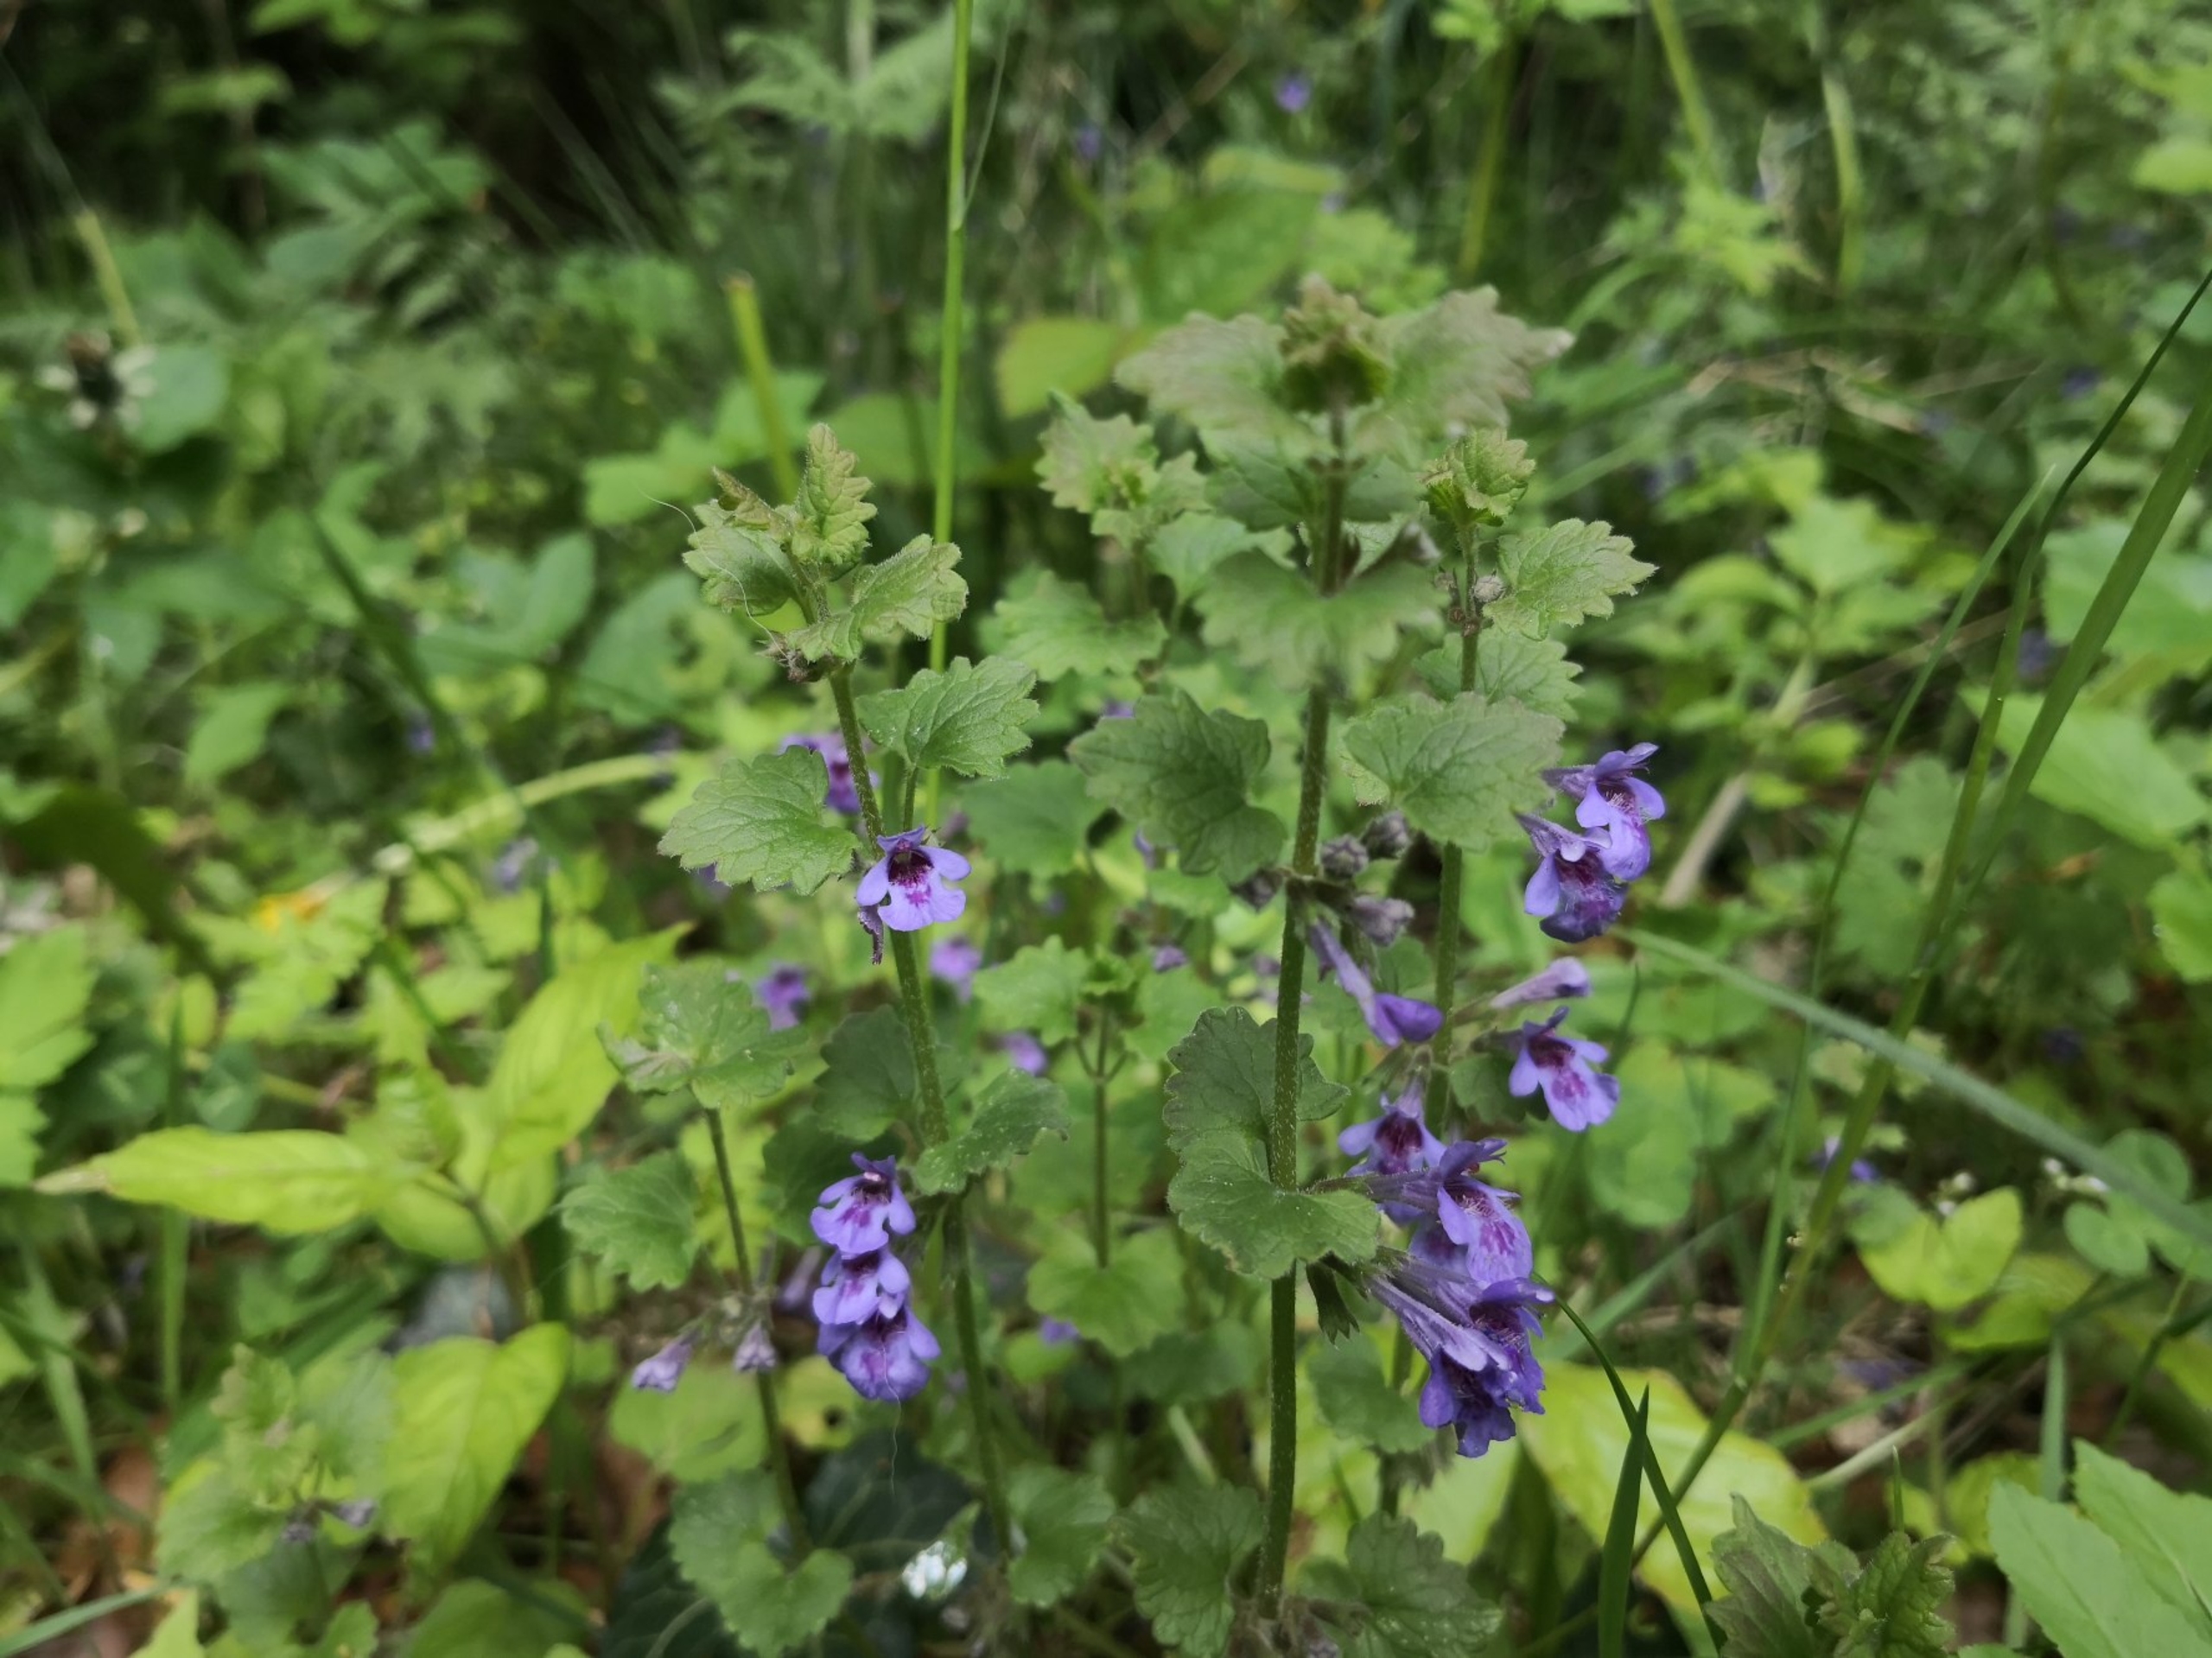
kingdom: Plantae
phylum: Tracheophyta
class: Magnoliopsida
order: Lamiales
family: Lamiaceae
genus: Glechoma
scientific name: Glechoma hederacea
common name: Korsknap
